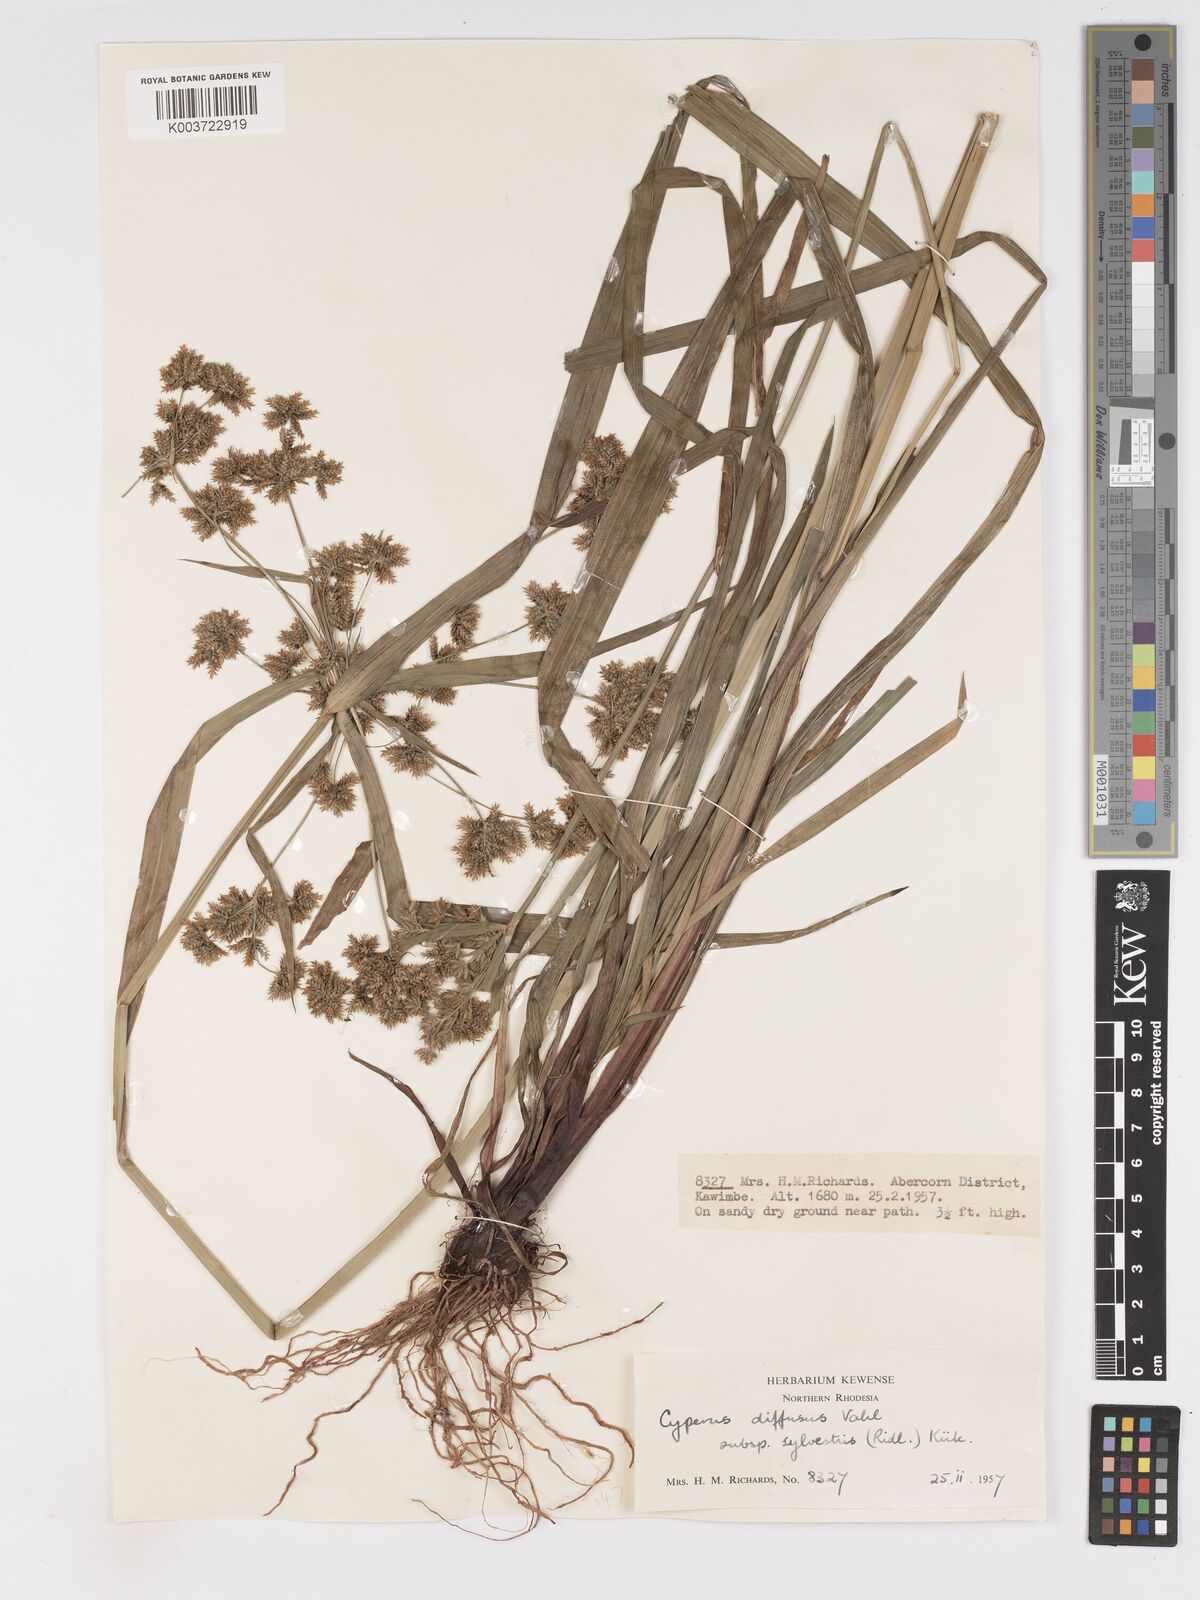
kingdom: Plantae
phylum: Tracheophyta
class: Liliopsida
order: Poales
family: Cyperaceae
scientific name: Cyperaceae
